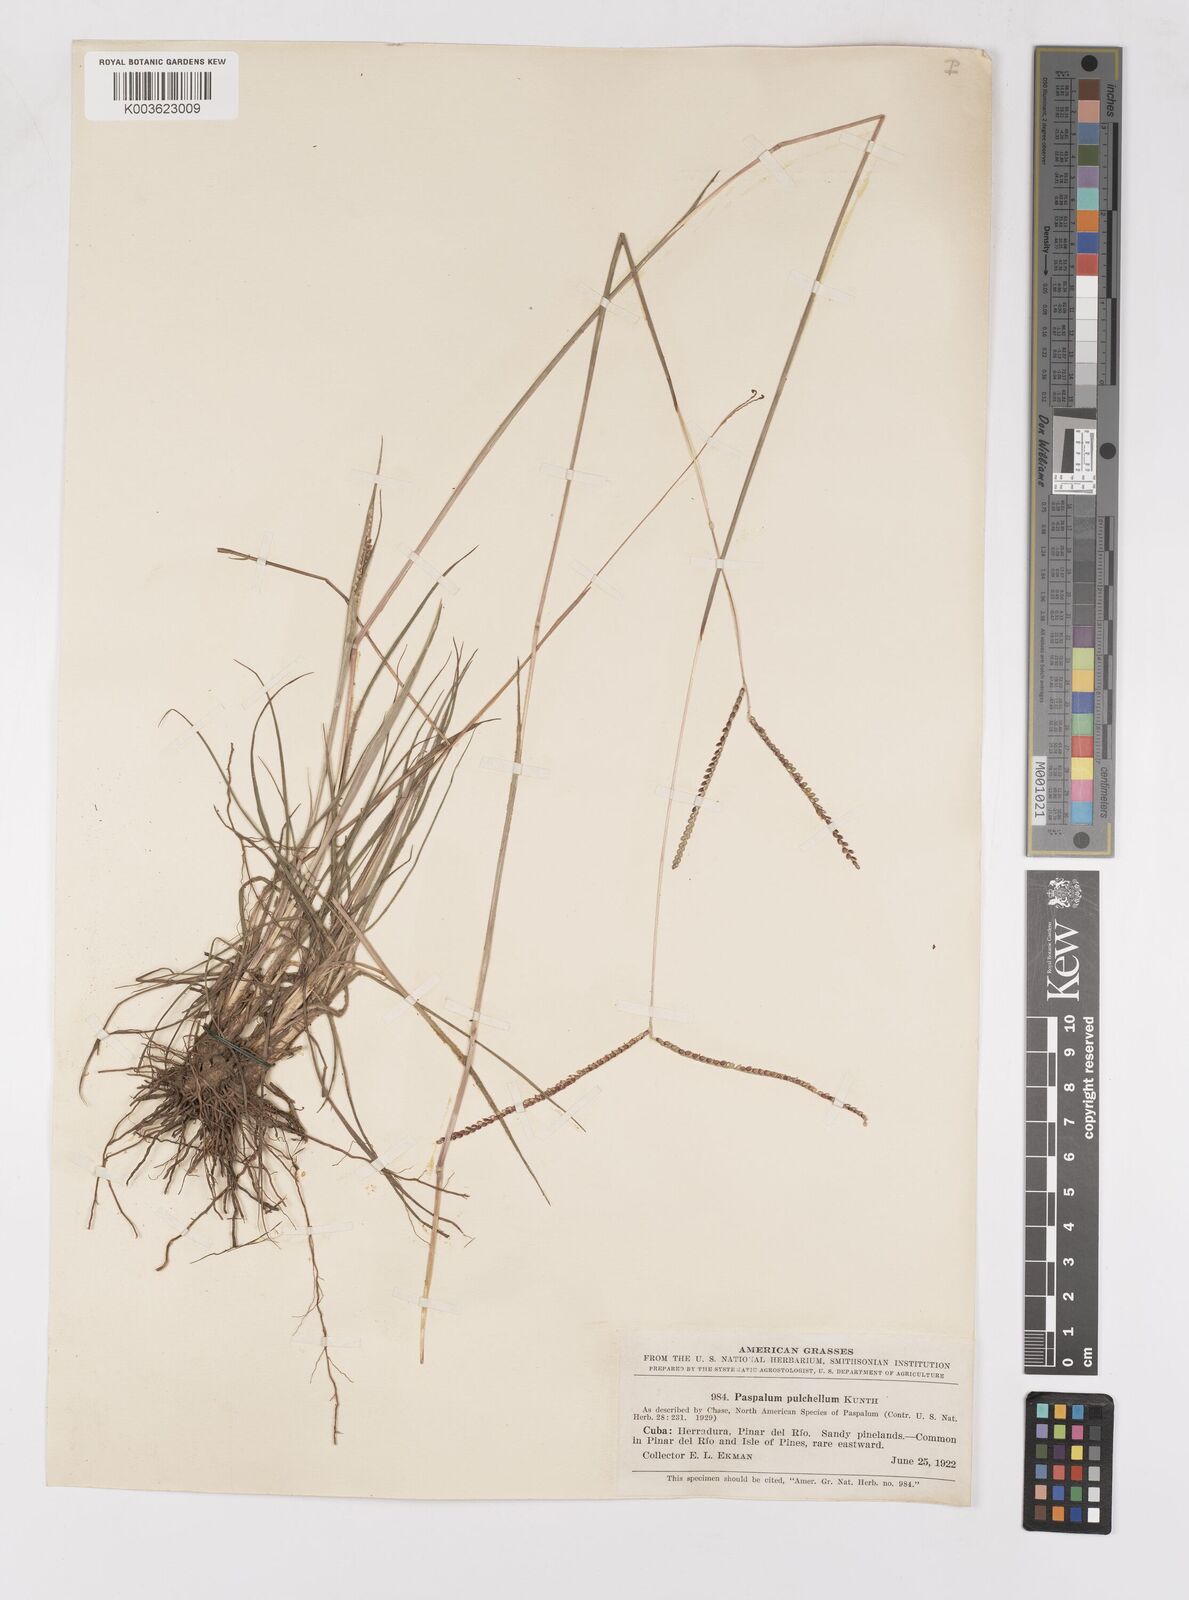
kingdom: Plantae
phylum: Tracheophyta
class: Liliopsida
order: Poales
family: Poaceae
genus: Paspalum
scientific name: Paspalum pulchellum
